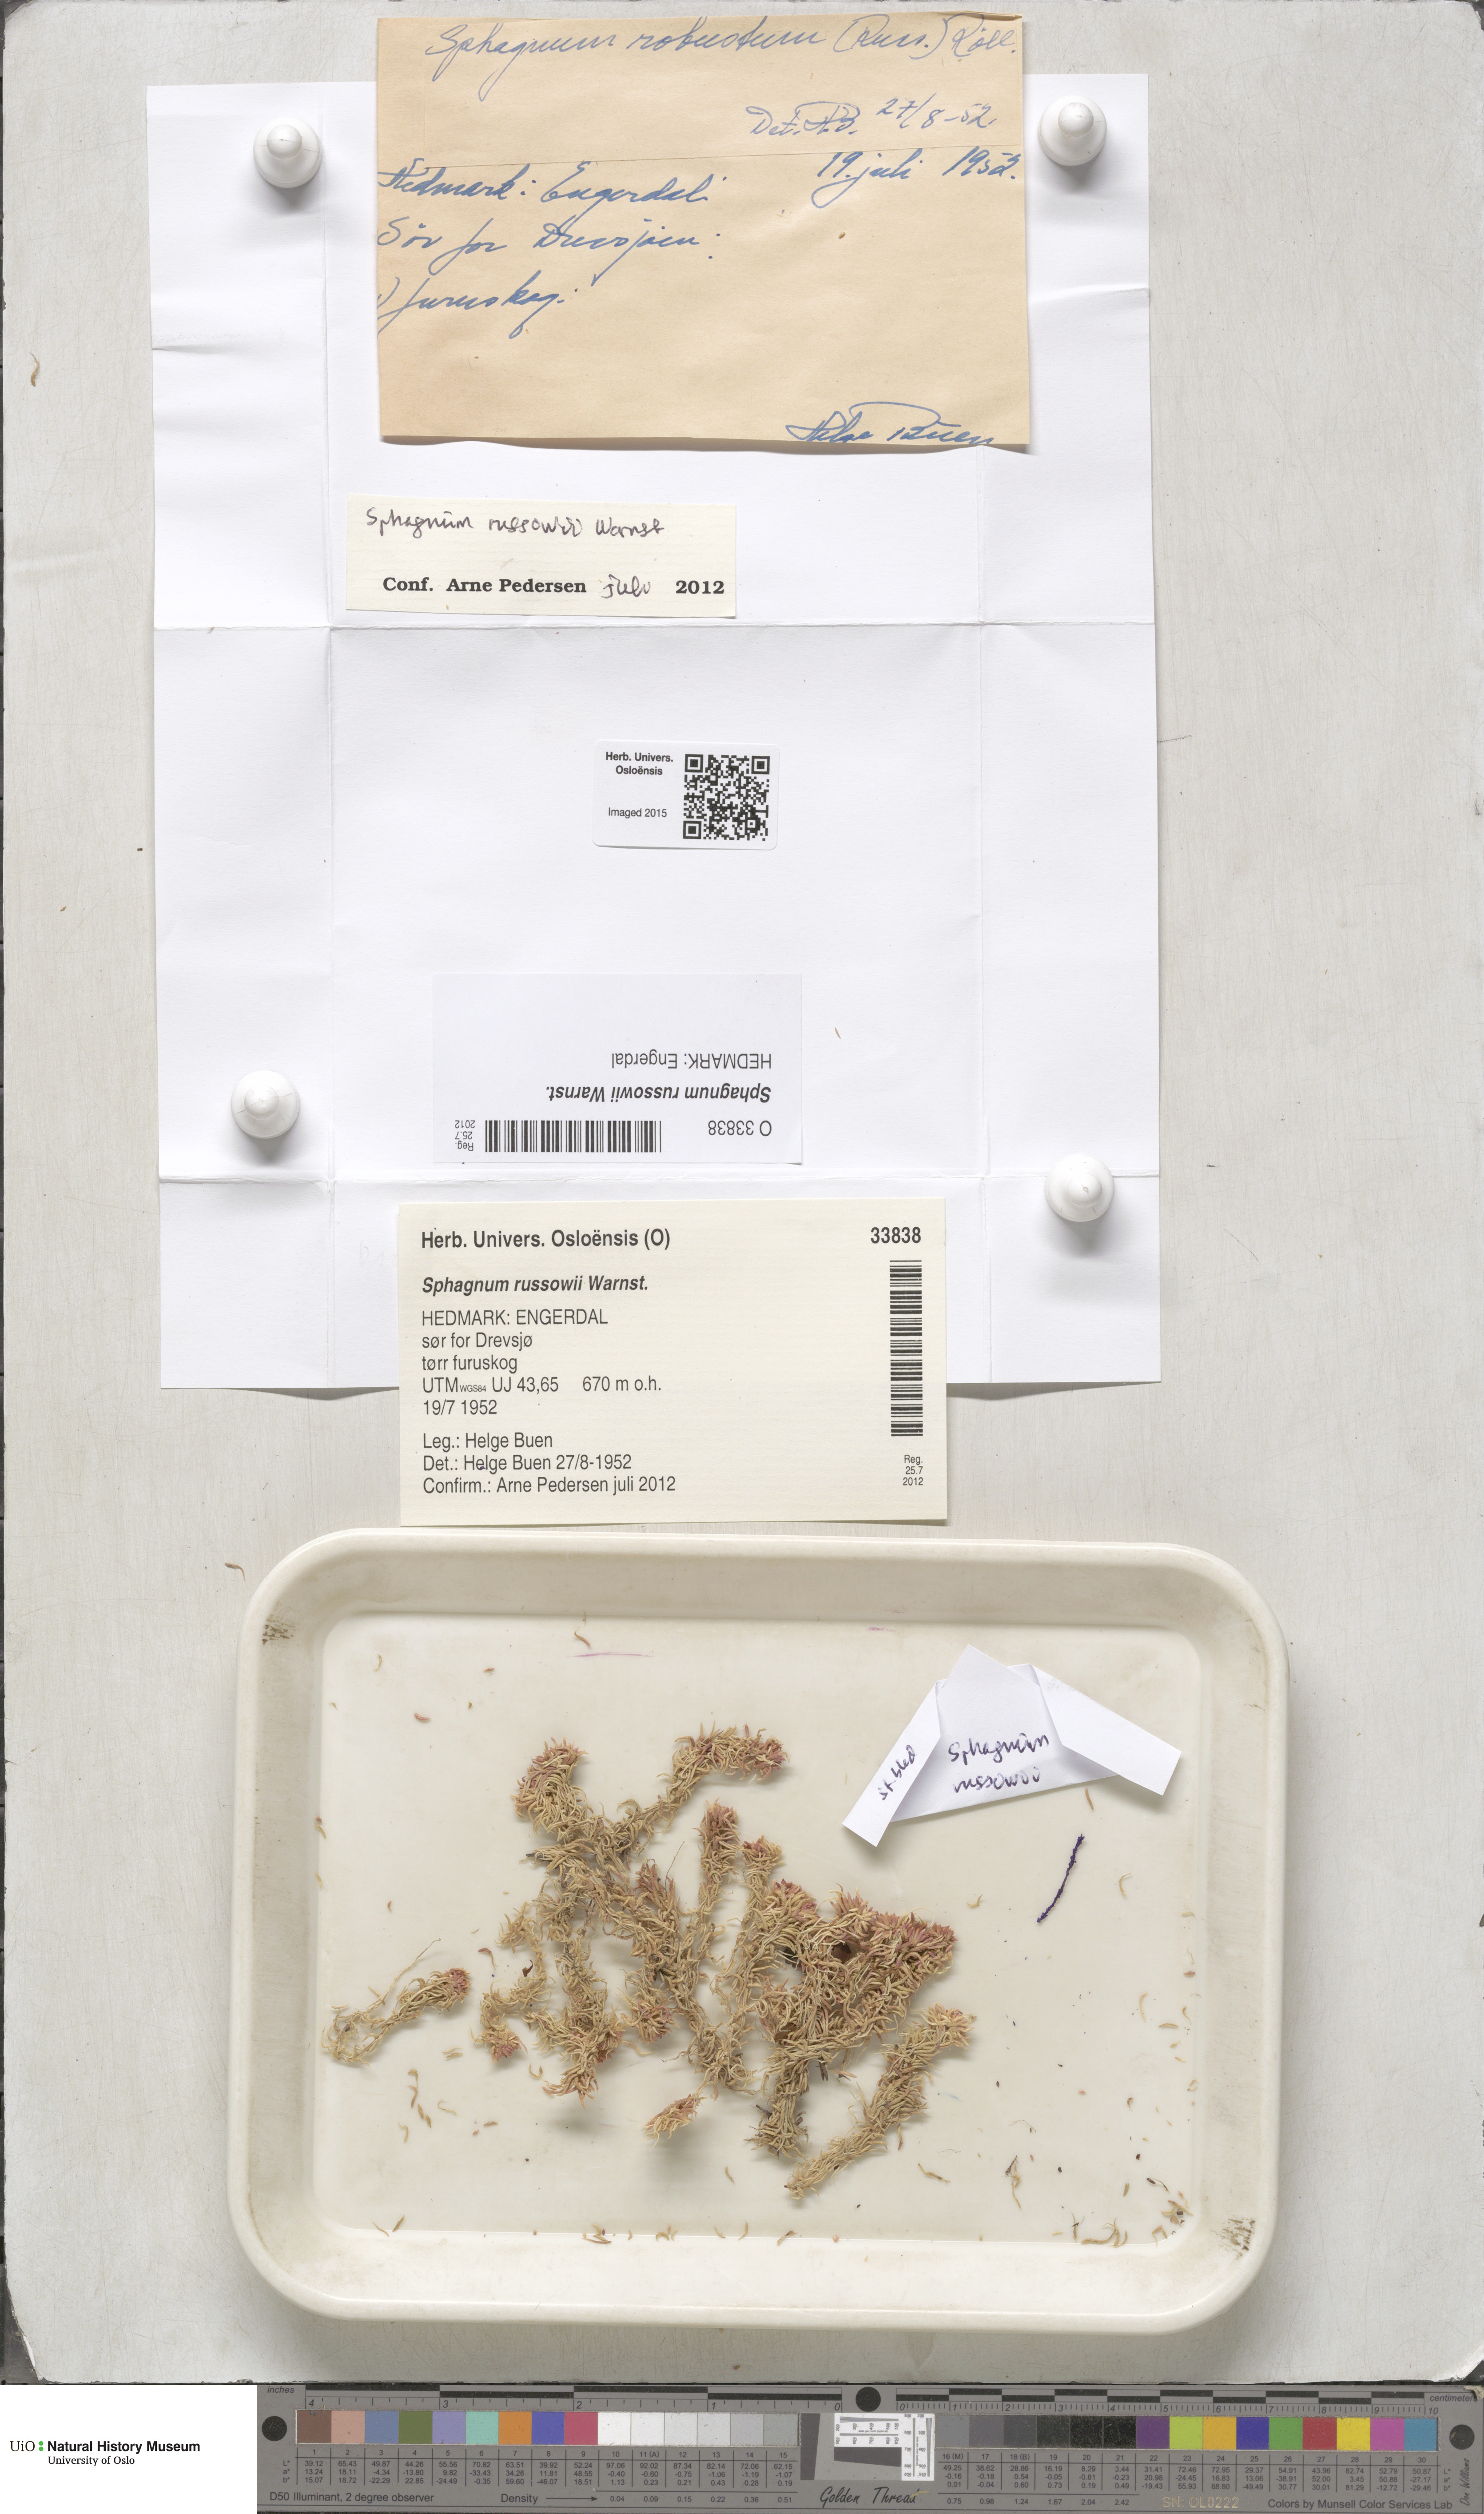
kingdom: Plantae
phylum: Bryophyta
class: Sphagnopsida
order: Sphagnales
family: Sphagnaceae
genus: Sphagnum
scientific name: Sphagnum russowii
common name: Russow's peat moss
